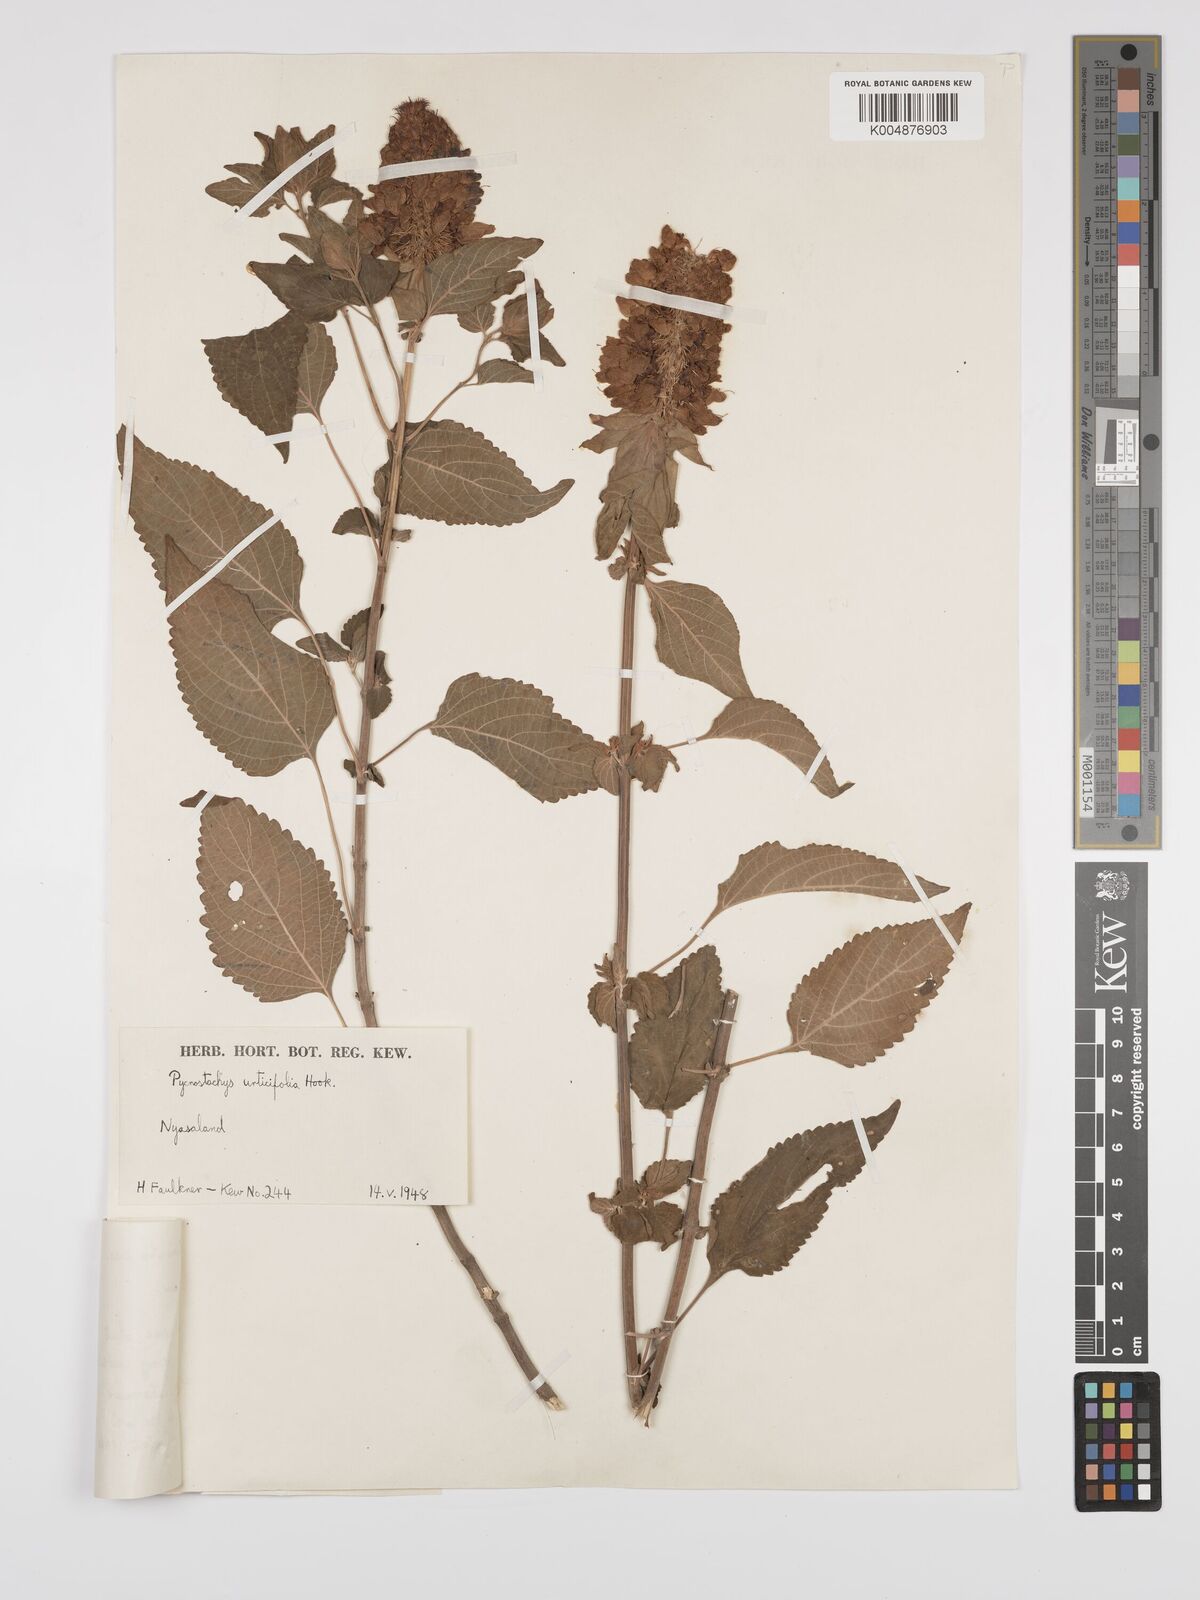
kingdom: Plantae
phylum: Tracheophyta
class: Magnoliopsida
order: Lamiales
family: Lamiaceae
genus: Coleus
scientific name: Coleus livingstonei
